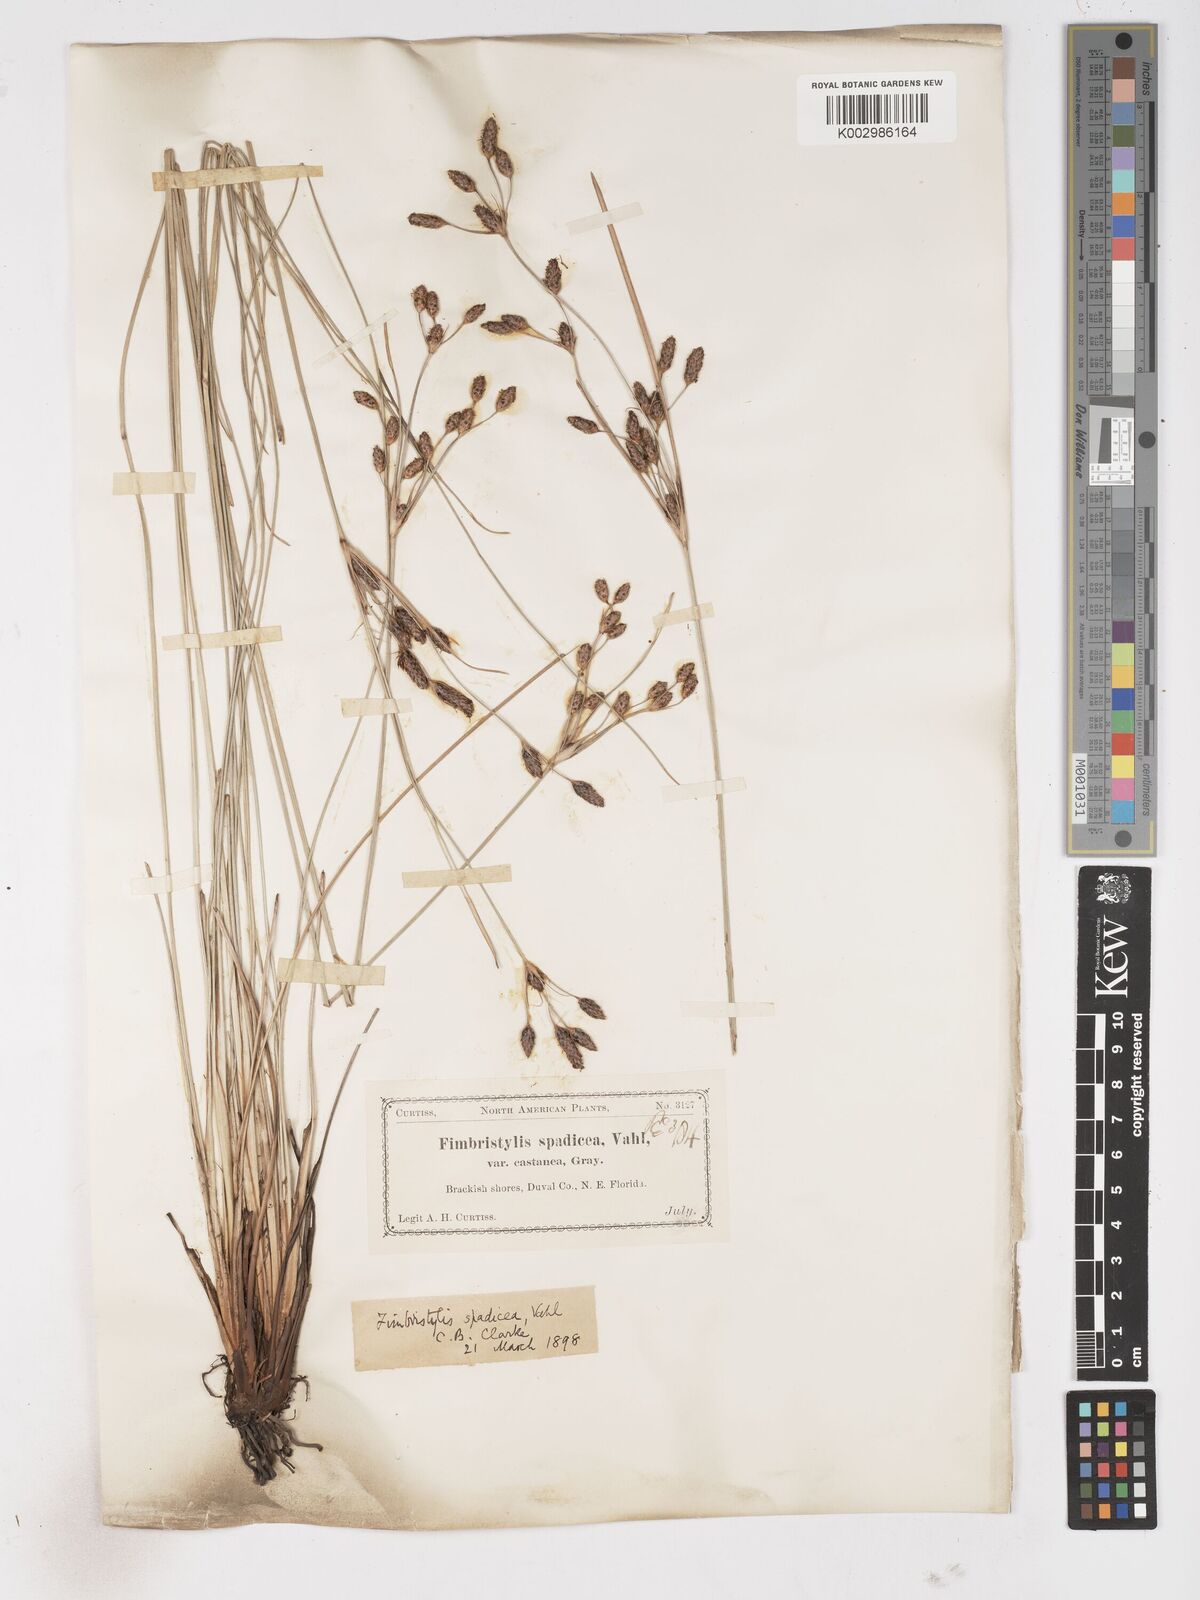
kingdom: Plantae
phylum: Tracheophyta
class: Liliopsida
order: Poales
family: Cyperaceae
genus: Fimbristylis
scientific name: Fimbristylis spadicea
